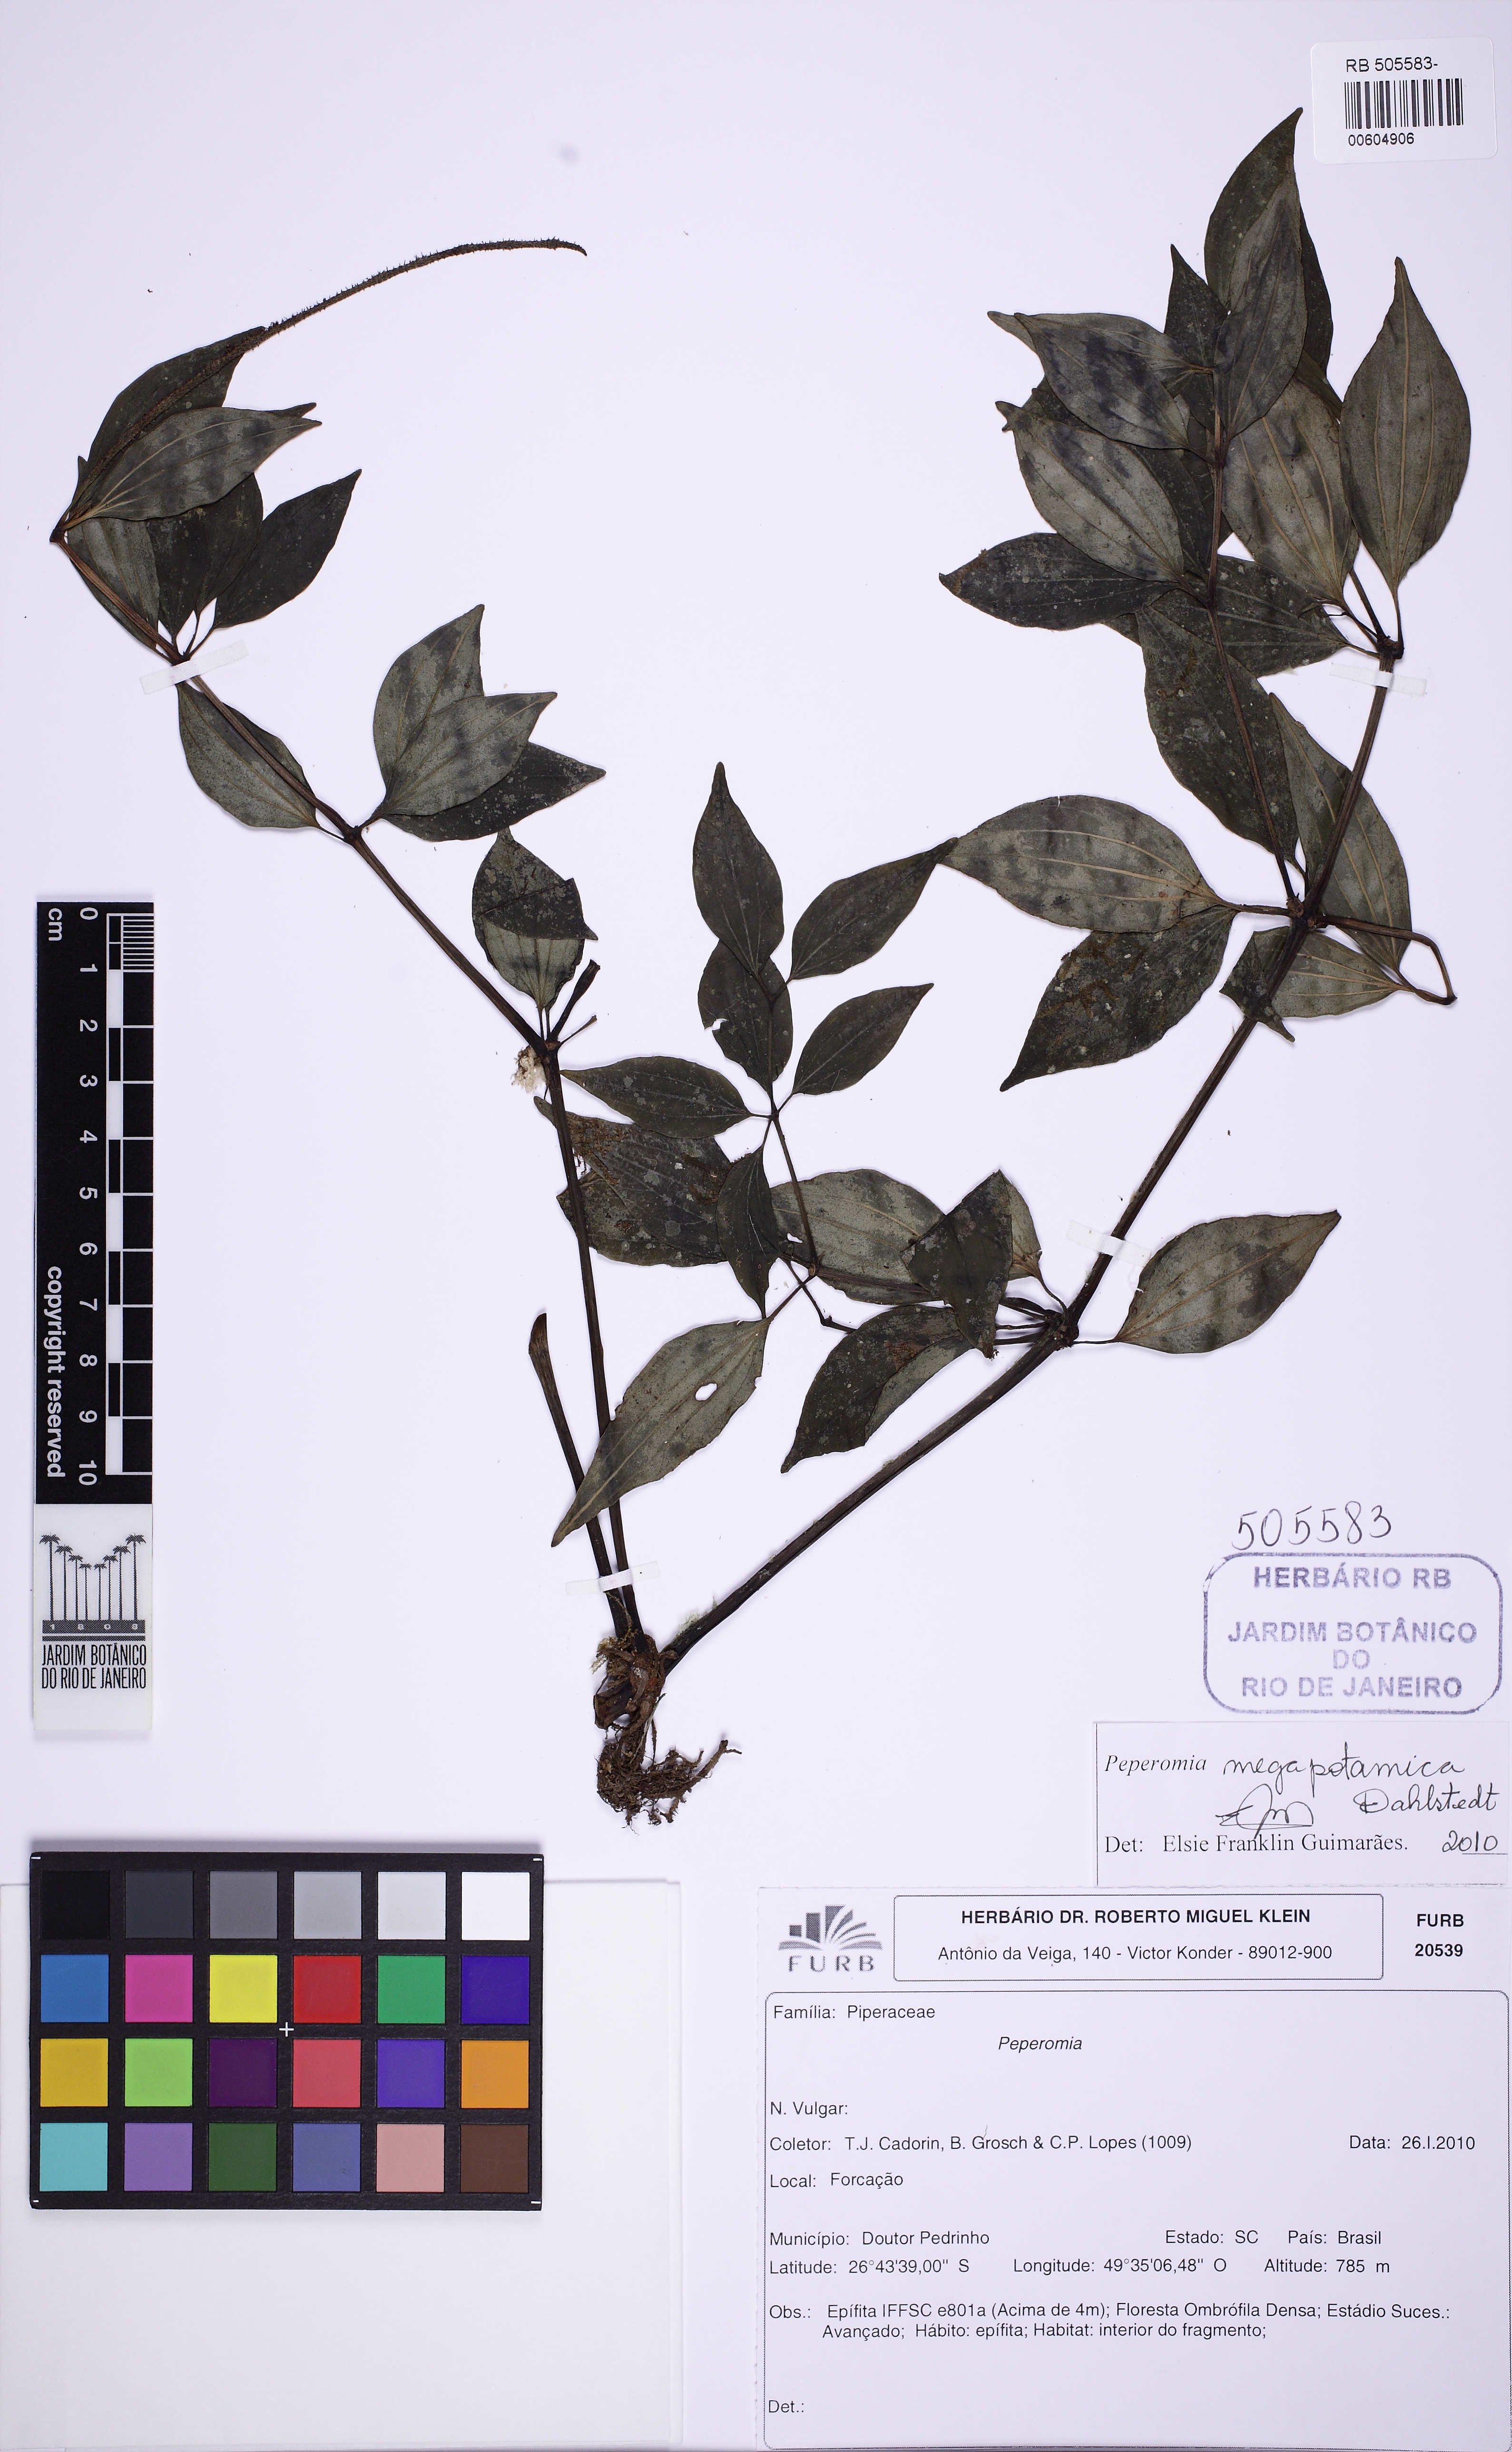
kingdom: Plantae
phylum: Tracheophyta
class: Magnoliopsida
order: Piperales
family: Piperaceae
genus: Peperomia
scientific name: Peperomia megapotamica
